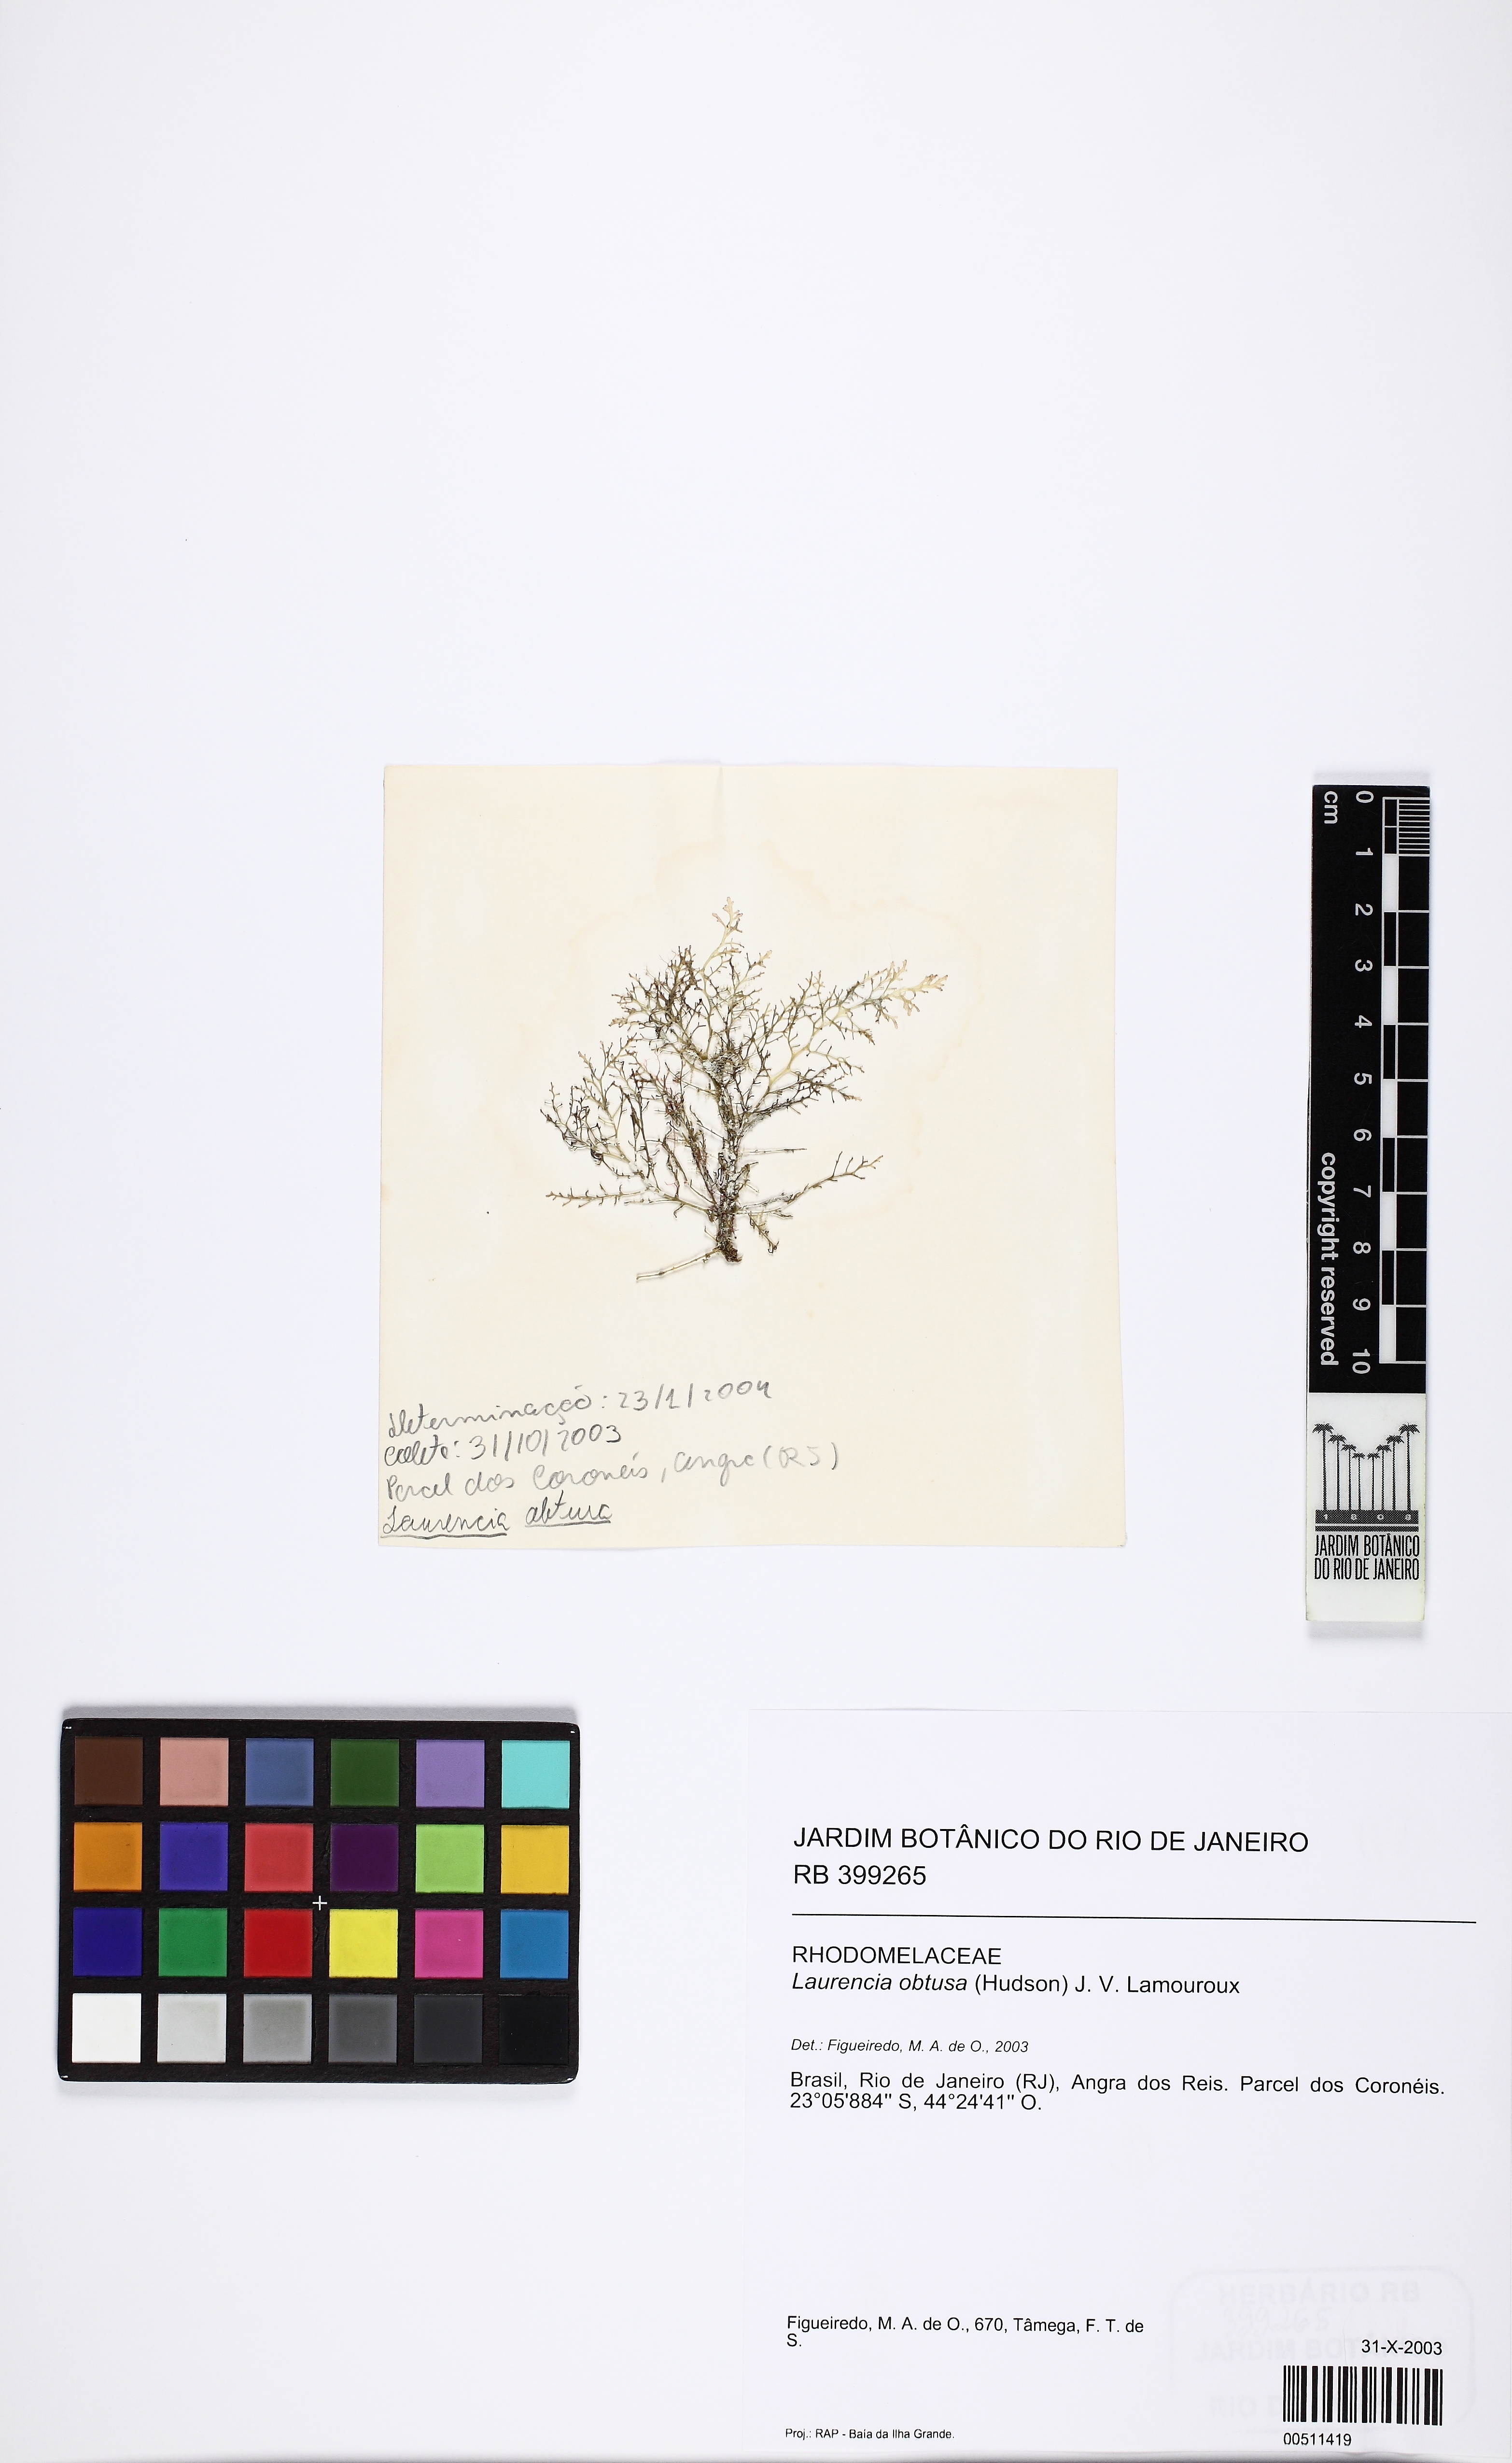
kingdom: Plantae
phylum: Rhodophyta
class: Florideophyceae
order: Ceramiales
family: Rhodomelaceae
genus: Laurencia
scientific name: Laurencia dendroidea
